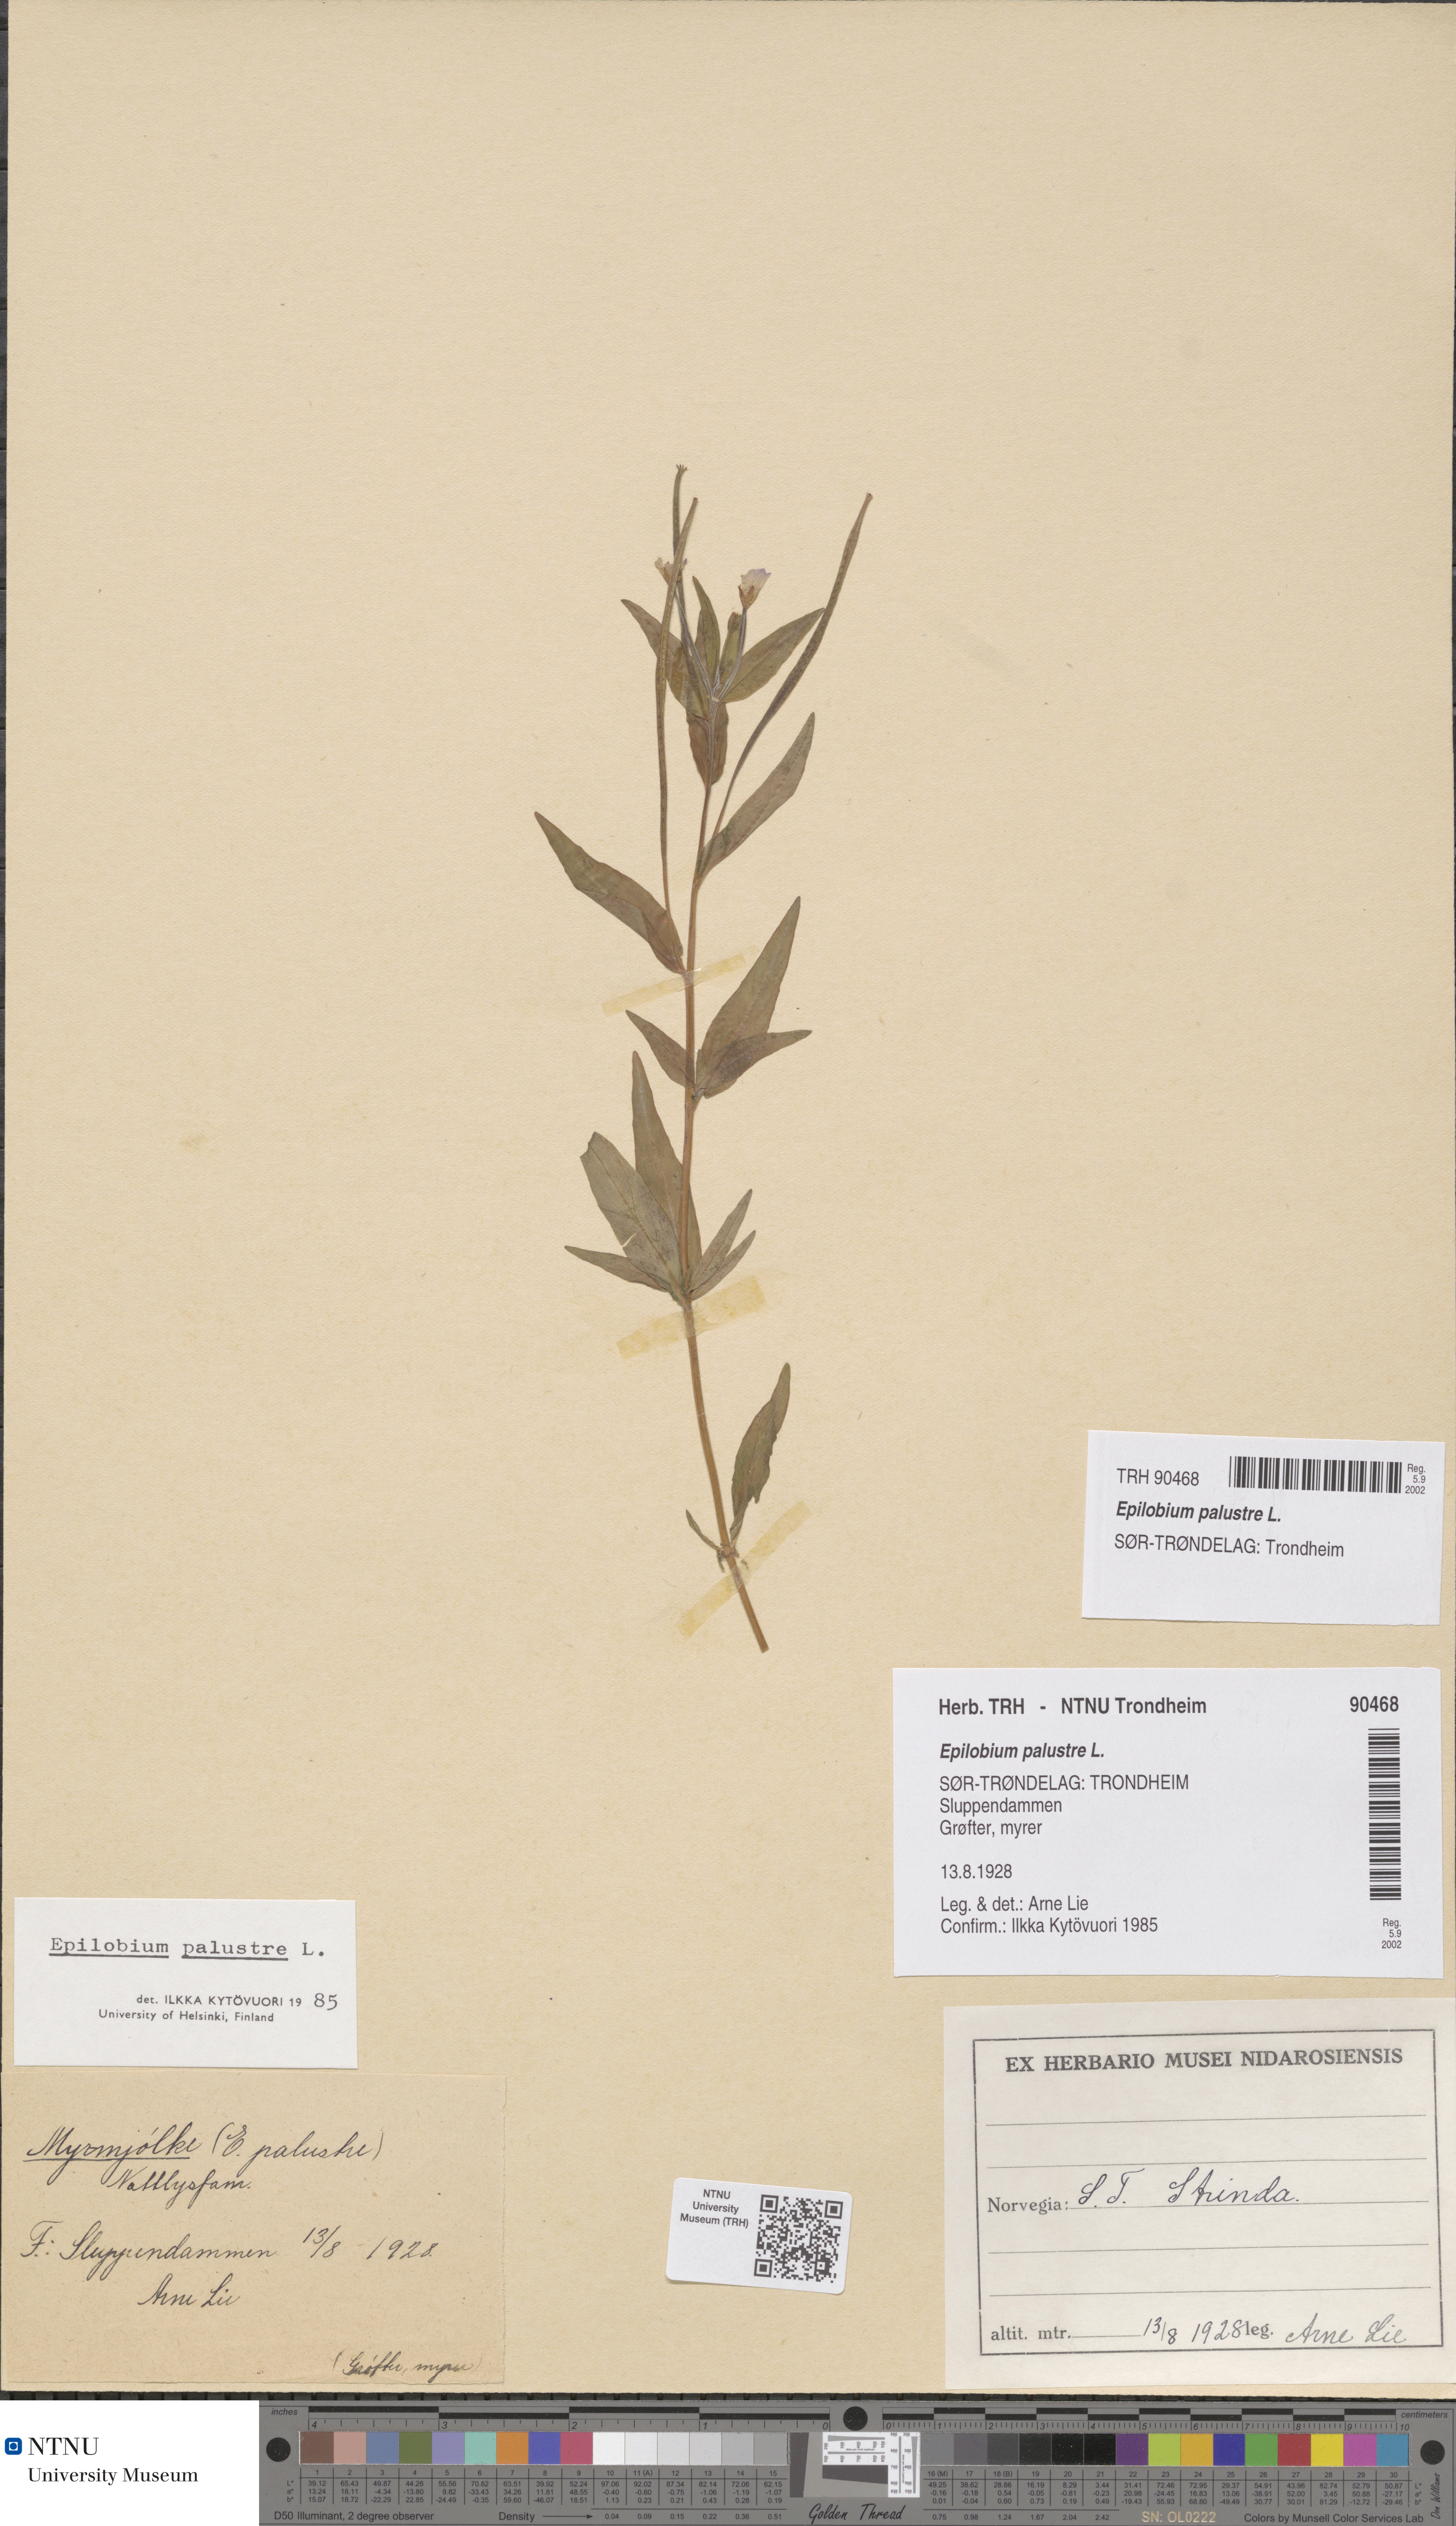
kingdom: Plantae
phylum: Tracheophyta
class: Magnoliopsida
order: Myrtales
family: Onagraceae
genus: Epilobium
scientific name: Epilobium palustre
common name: Marsh willowherb
